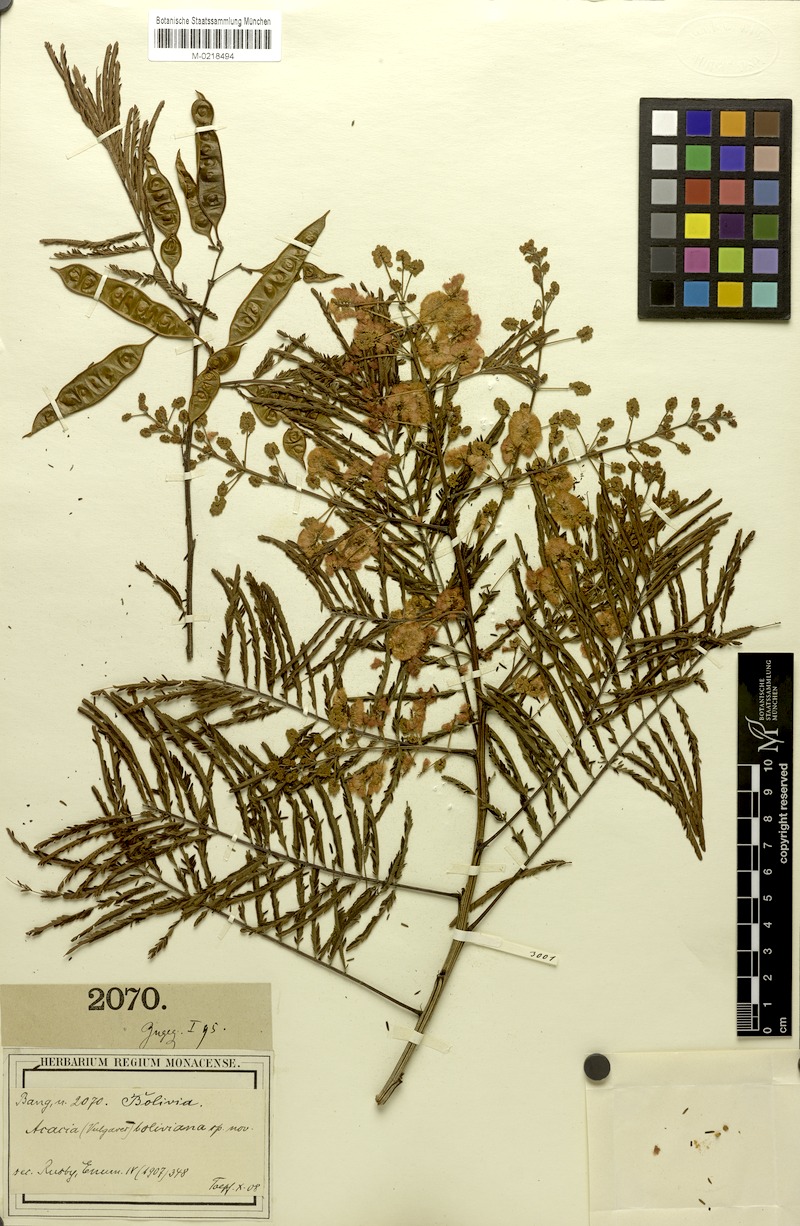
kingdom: Plantae
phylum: Tracheophyta
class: Magnoliopsida
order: Fabales
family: Fabaceae
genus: Acaciella
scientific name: Acaciella angustissima
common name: Prairie acacia
